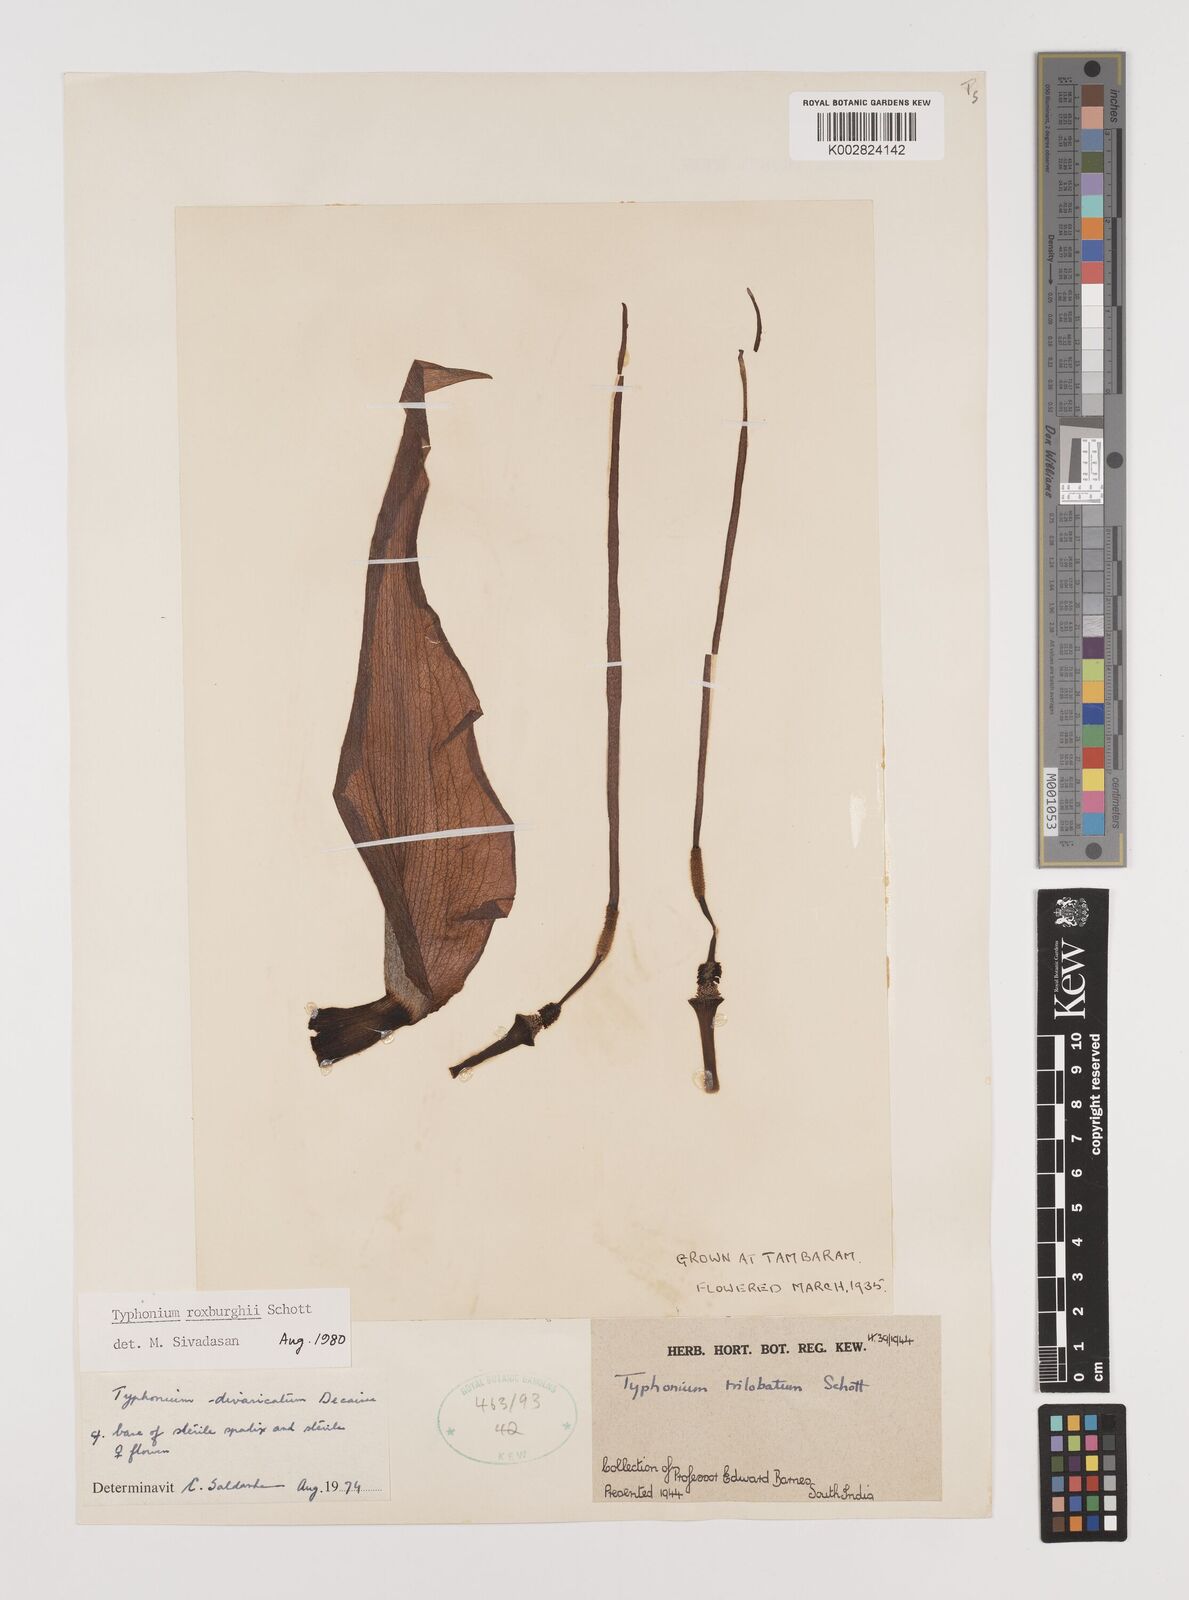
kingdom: Plantae
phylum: Tracheophyta
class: Liliopsida
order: Alismatales
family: Araceae
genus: Typhonium
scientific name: Typhonium roxburghii
